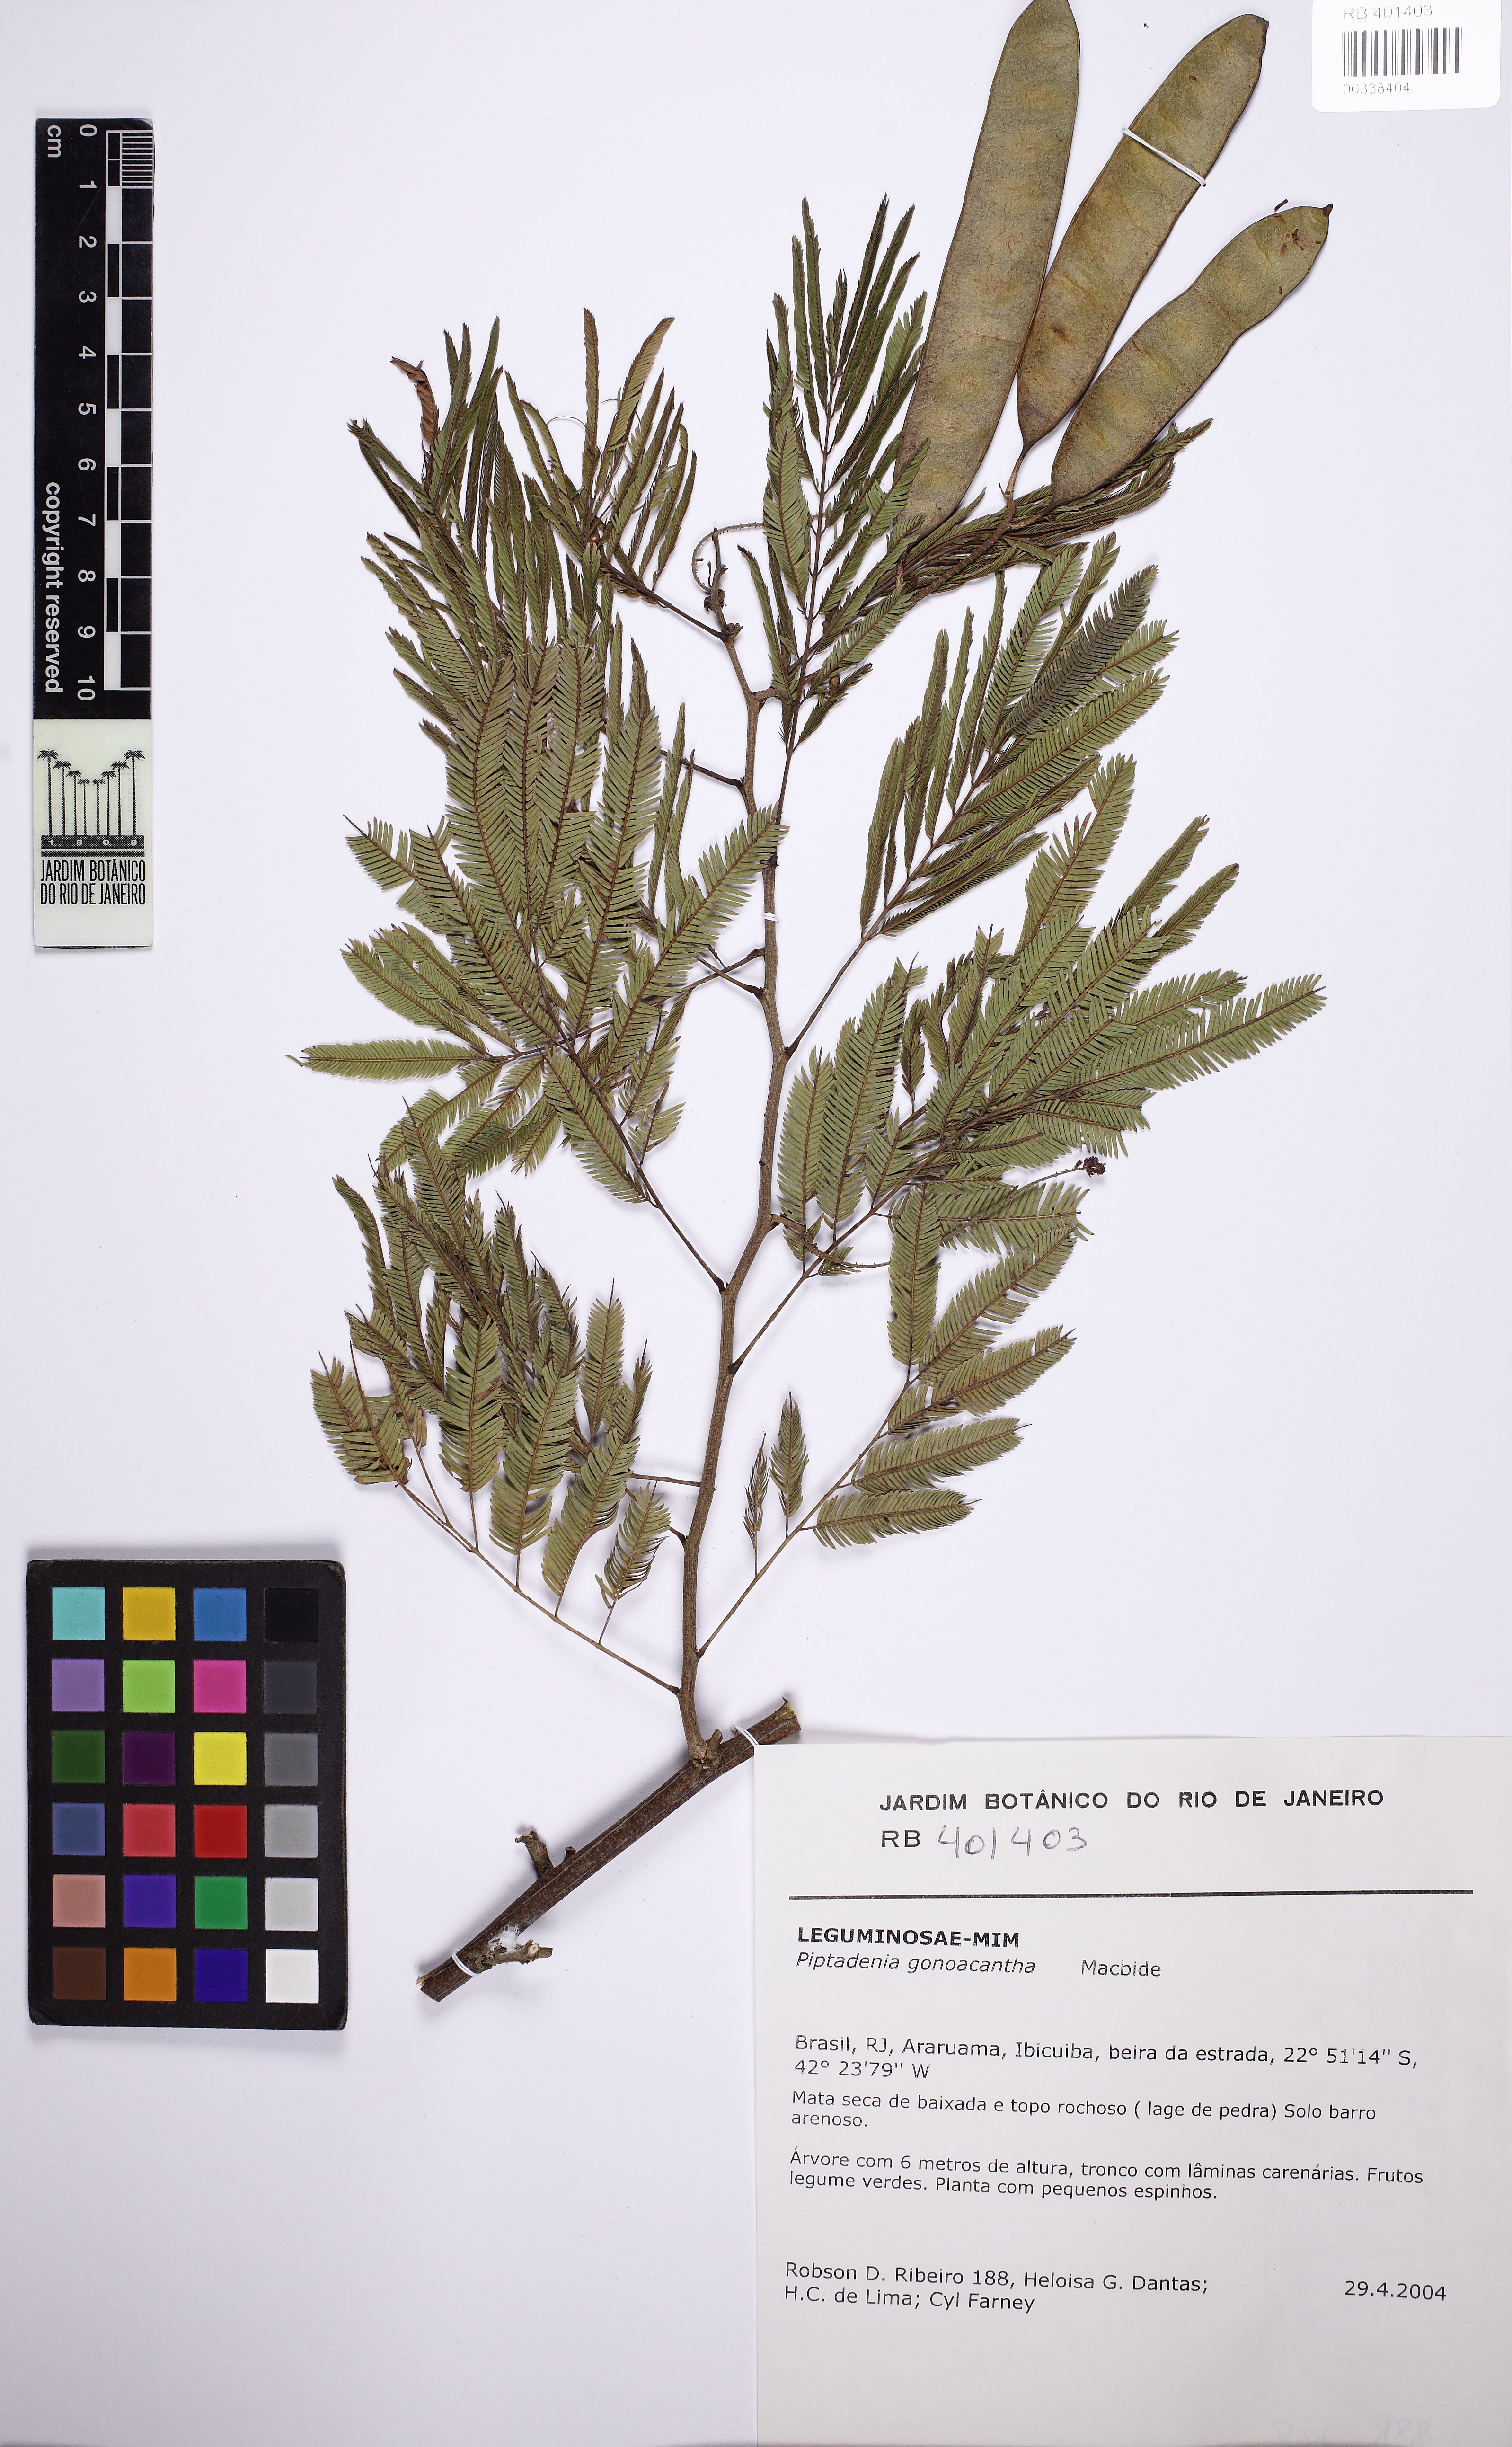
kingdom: Plantae
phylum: Tracheophyta
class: Magnoliopsida
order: Fabales
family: Fabaceae
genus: Piptadenia
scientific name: Piptadenia gonoacantha
